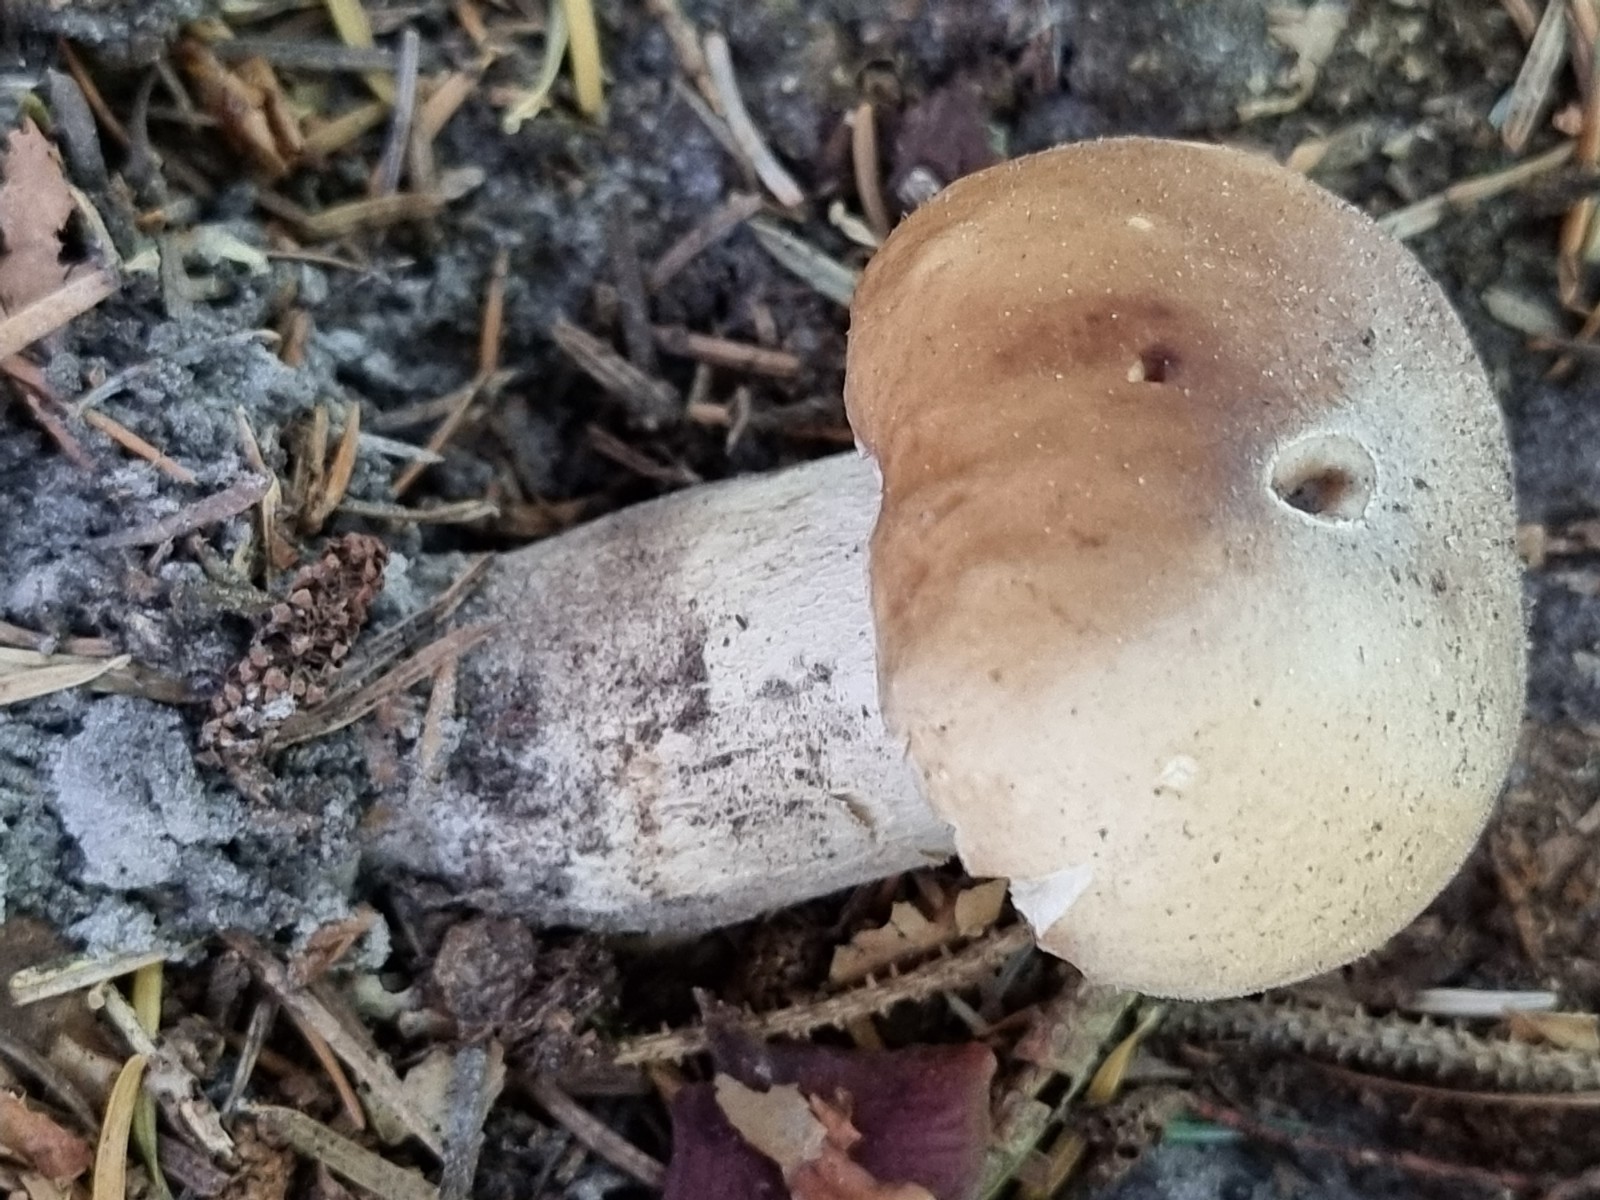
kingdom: Fungi
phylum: Basidiomycota
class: Agaricomycetes
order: Boletales
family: Boletaceae
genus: Boletus
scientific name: Boletus edulis
